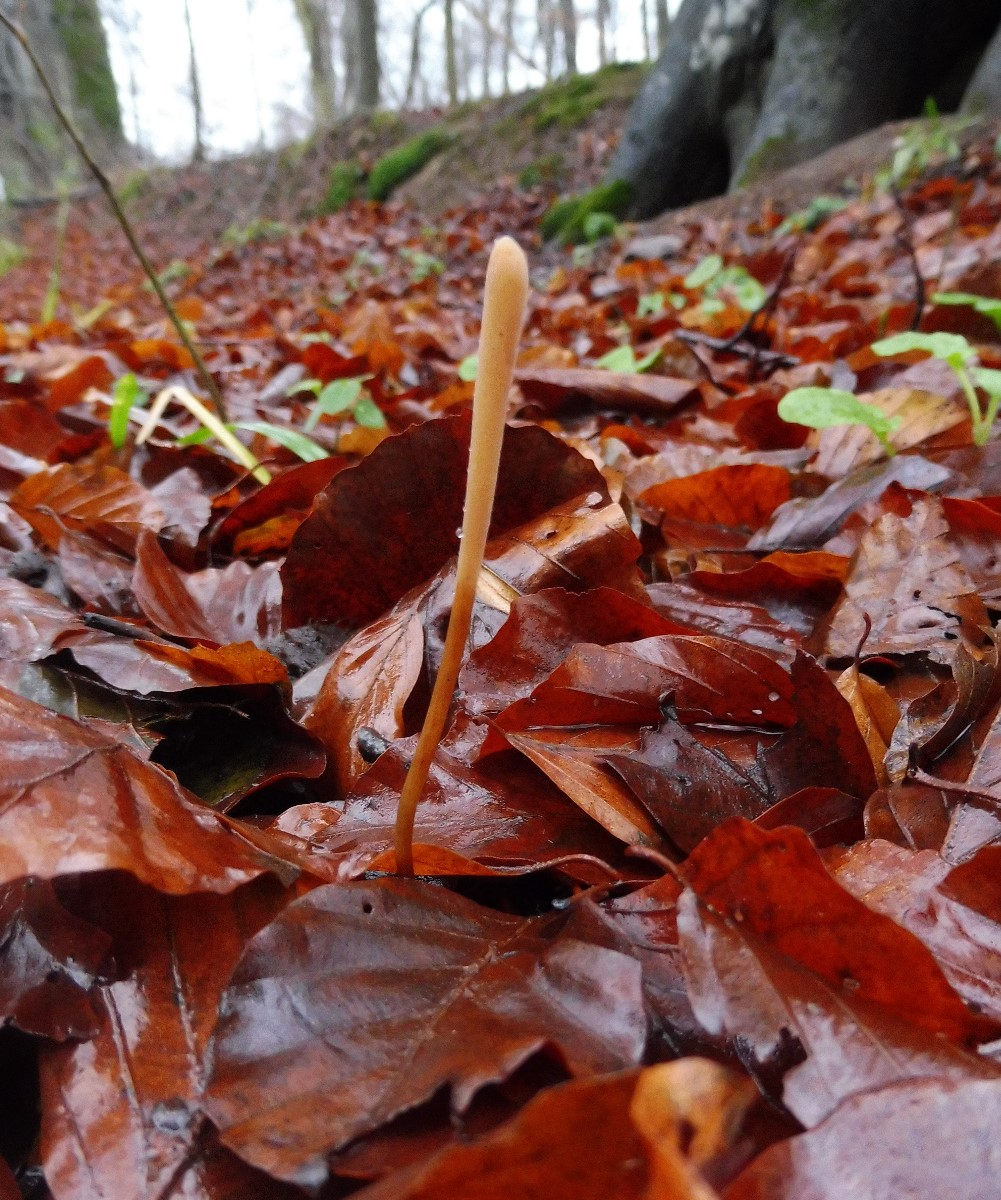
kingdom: Fungi
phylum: Basidiomycota
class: Agaricomycetes
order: Agaricales
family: Typhulaceae
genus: Typhula
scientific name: Typhula fistulosa
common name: pibet rørkølle
